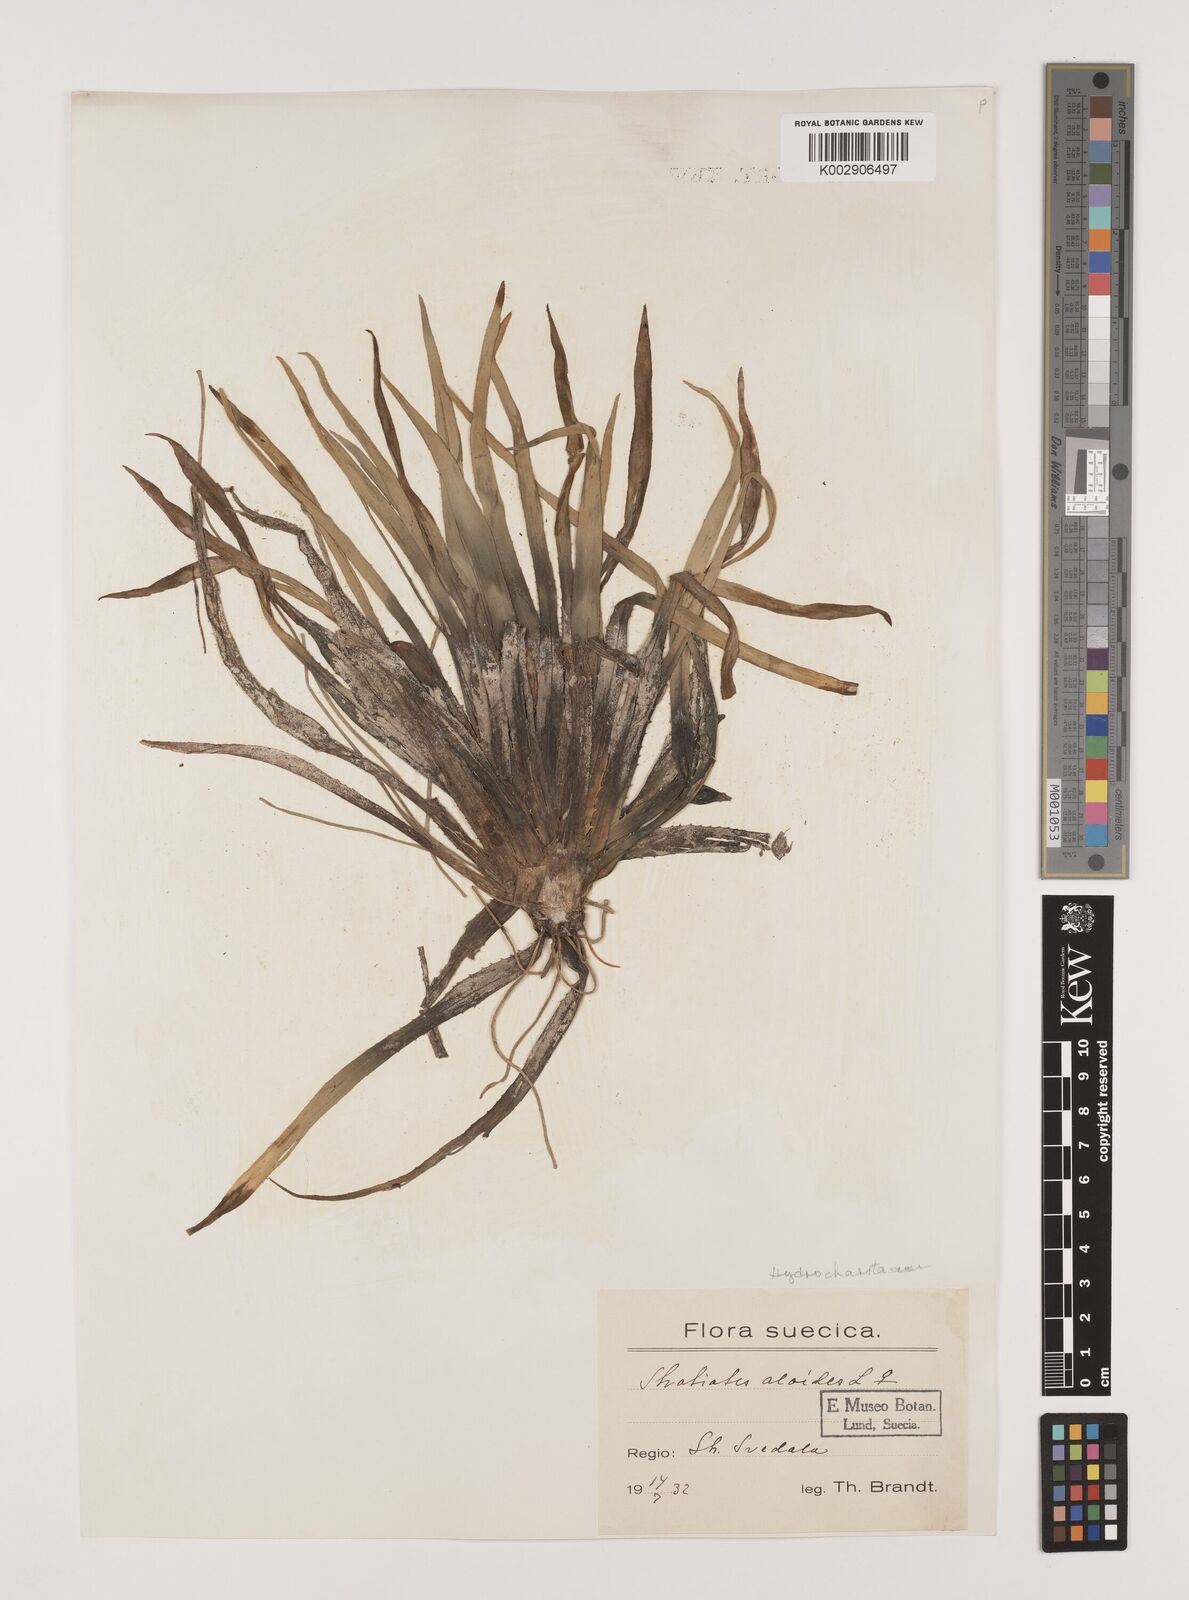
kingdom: Plantae
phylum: Tracheophyta
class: Liliopsida
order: Alismatales
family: Hydrocharitaceae
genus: Stratiotes
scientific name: Stratiotes aloides
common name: Water-soldier
